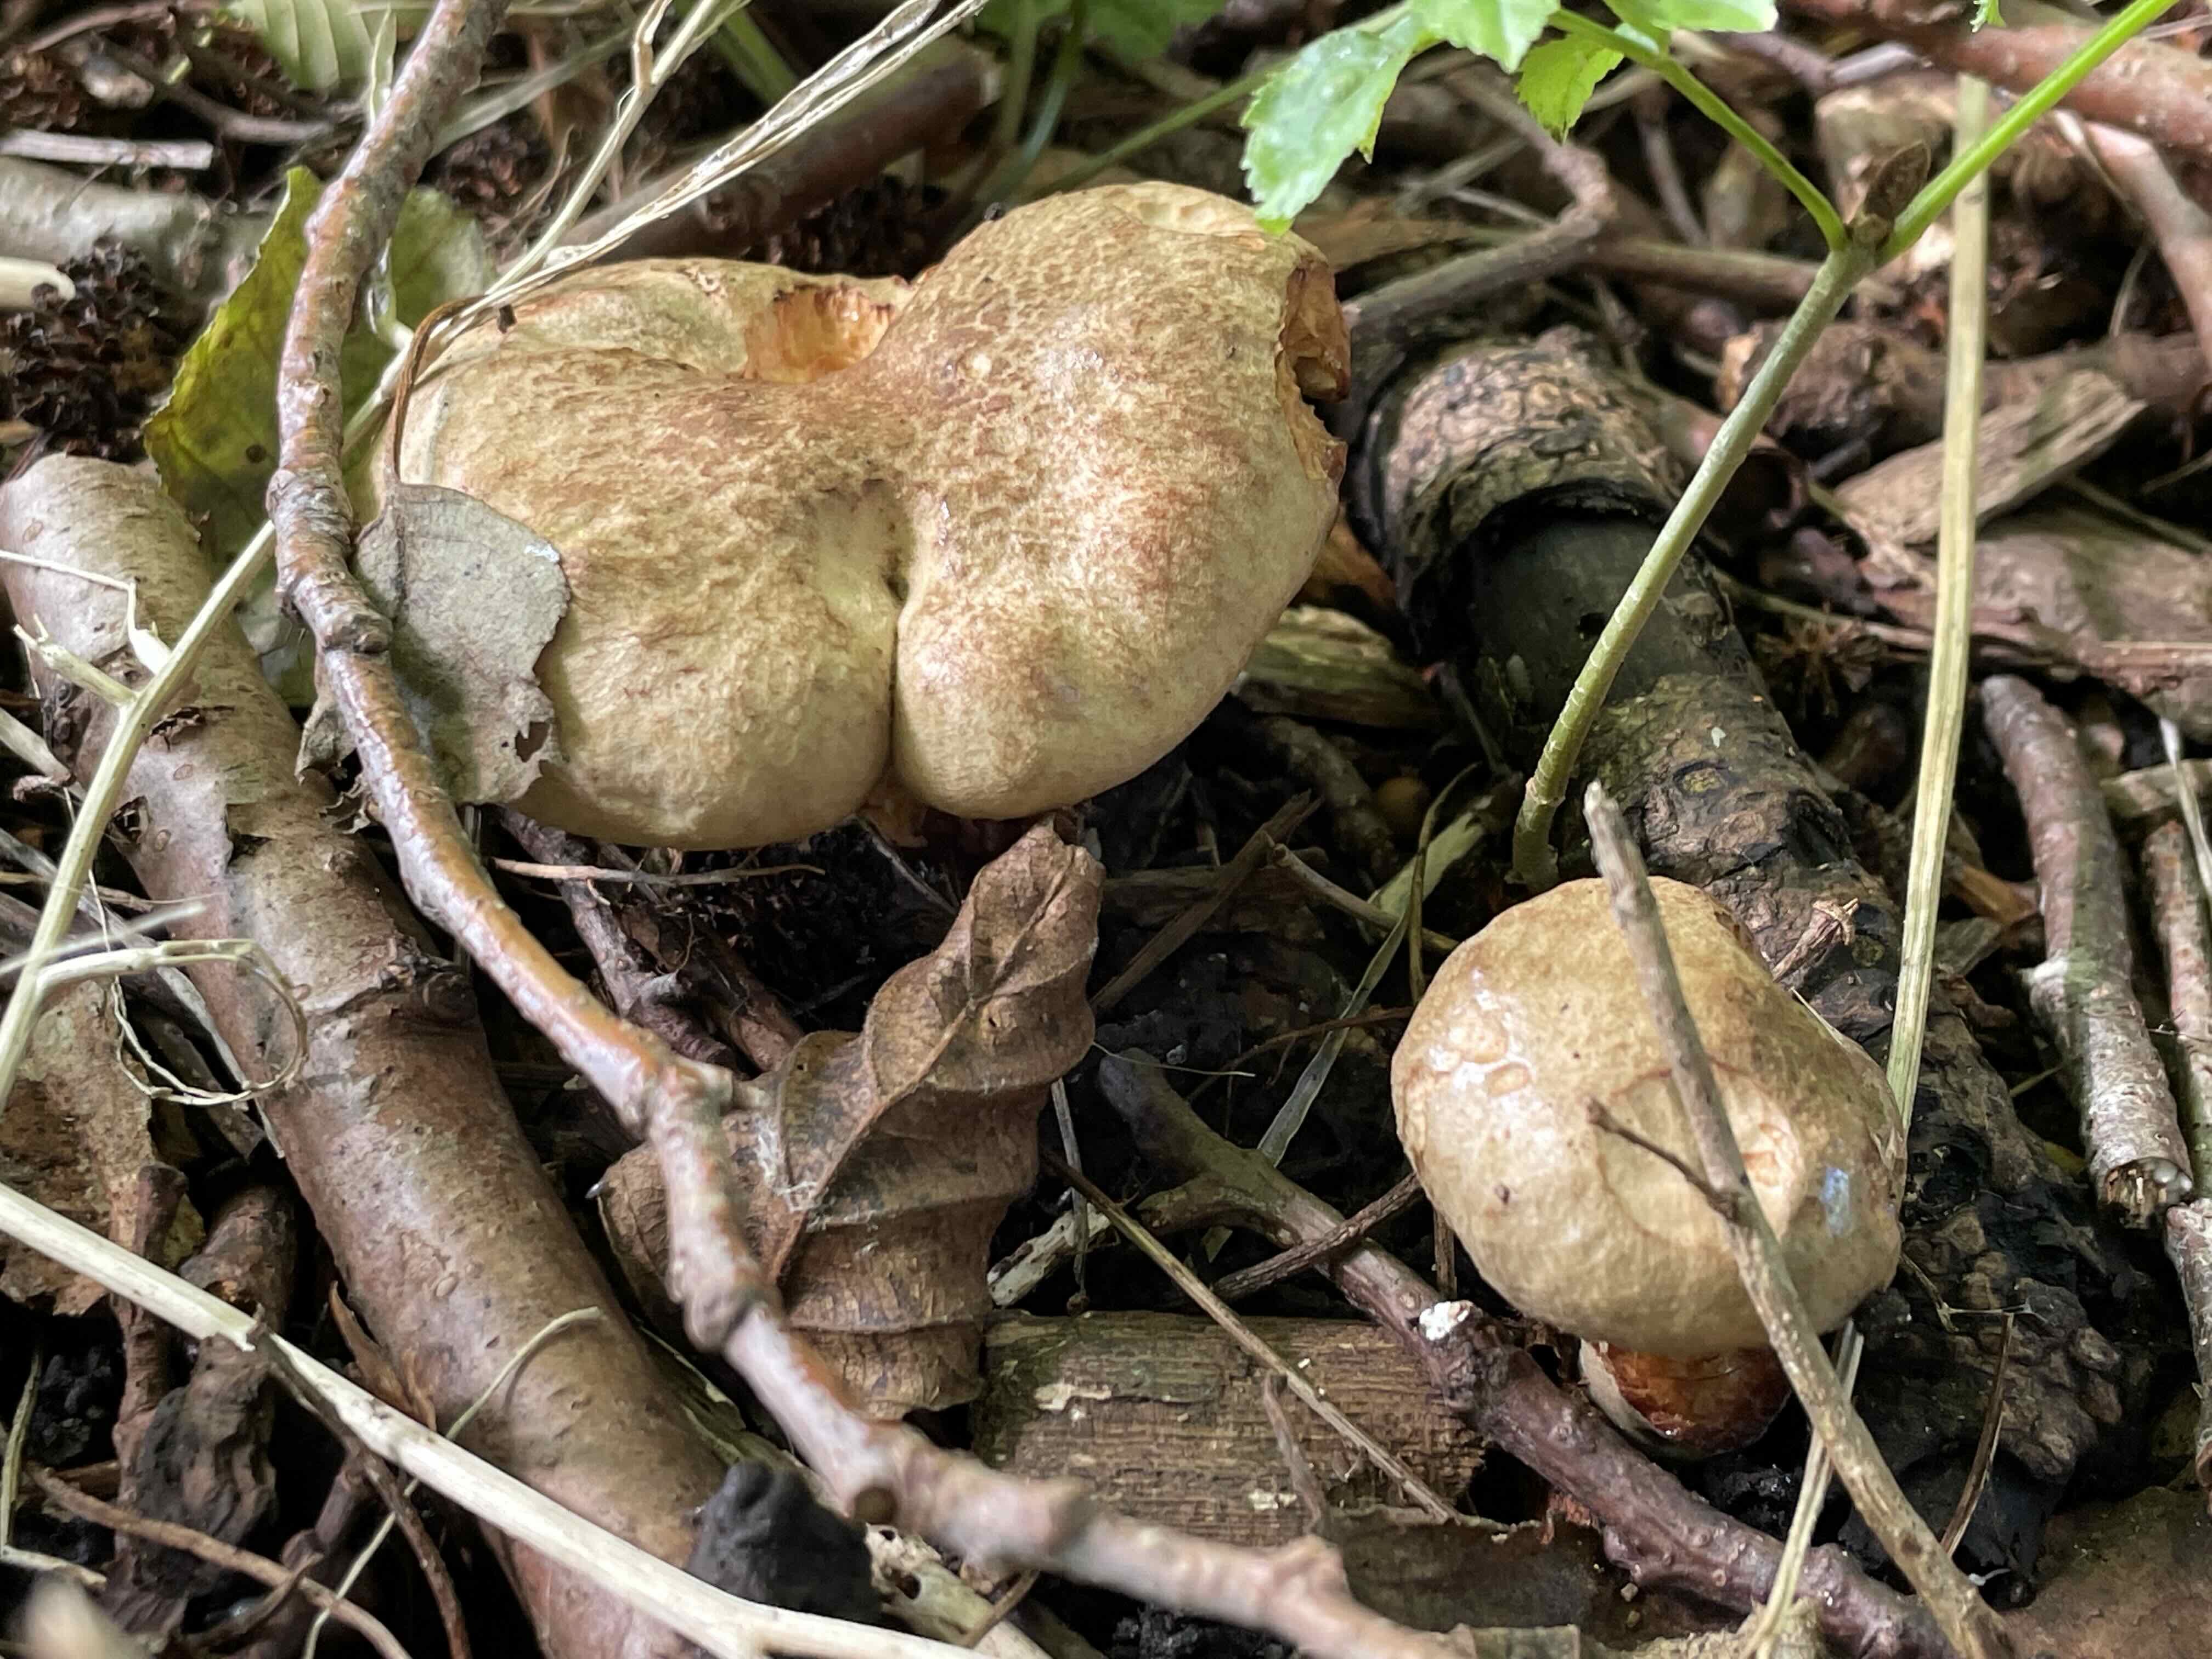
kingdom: Fungi
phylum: Basidiomycota
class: Agaricomycetes
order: Boletales
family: Paxillaceae
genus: Paxillus
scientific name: Paxillus rubicundulus
